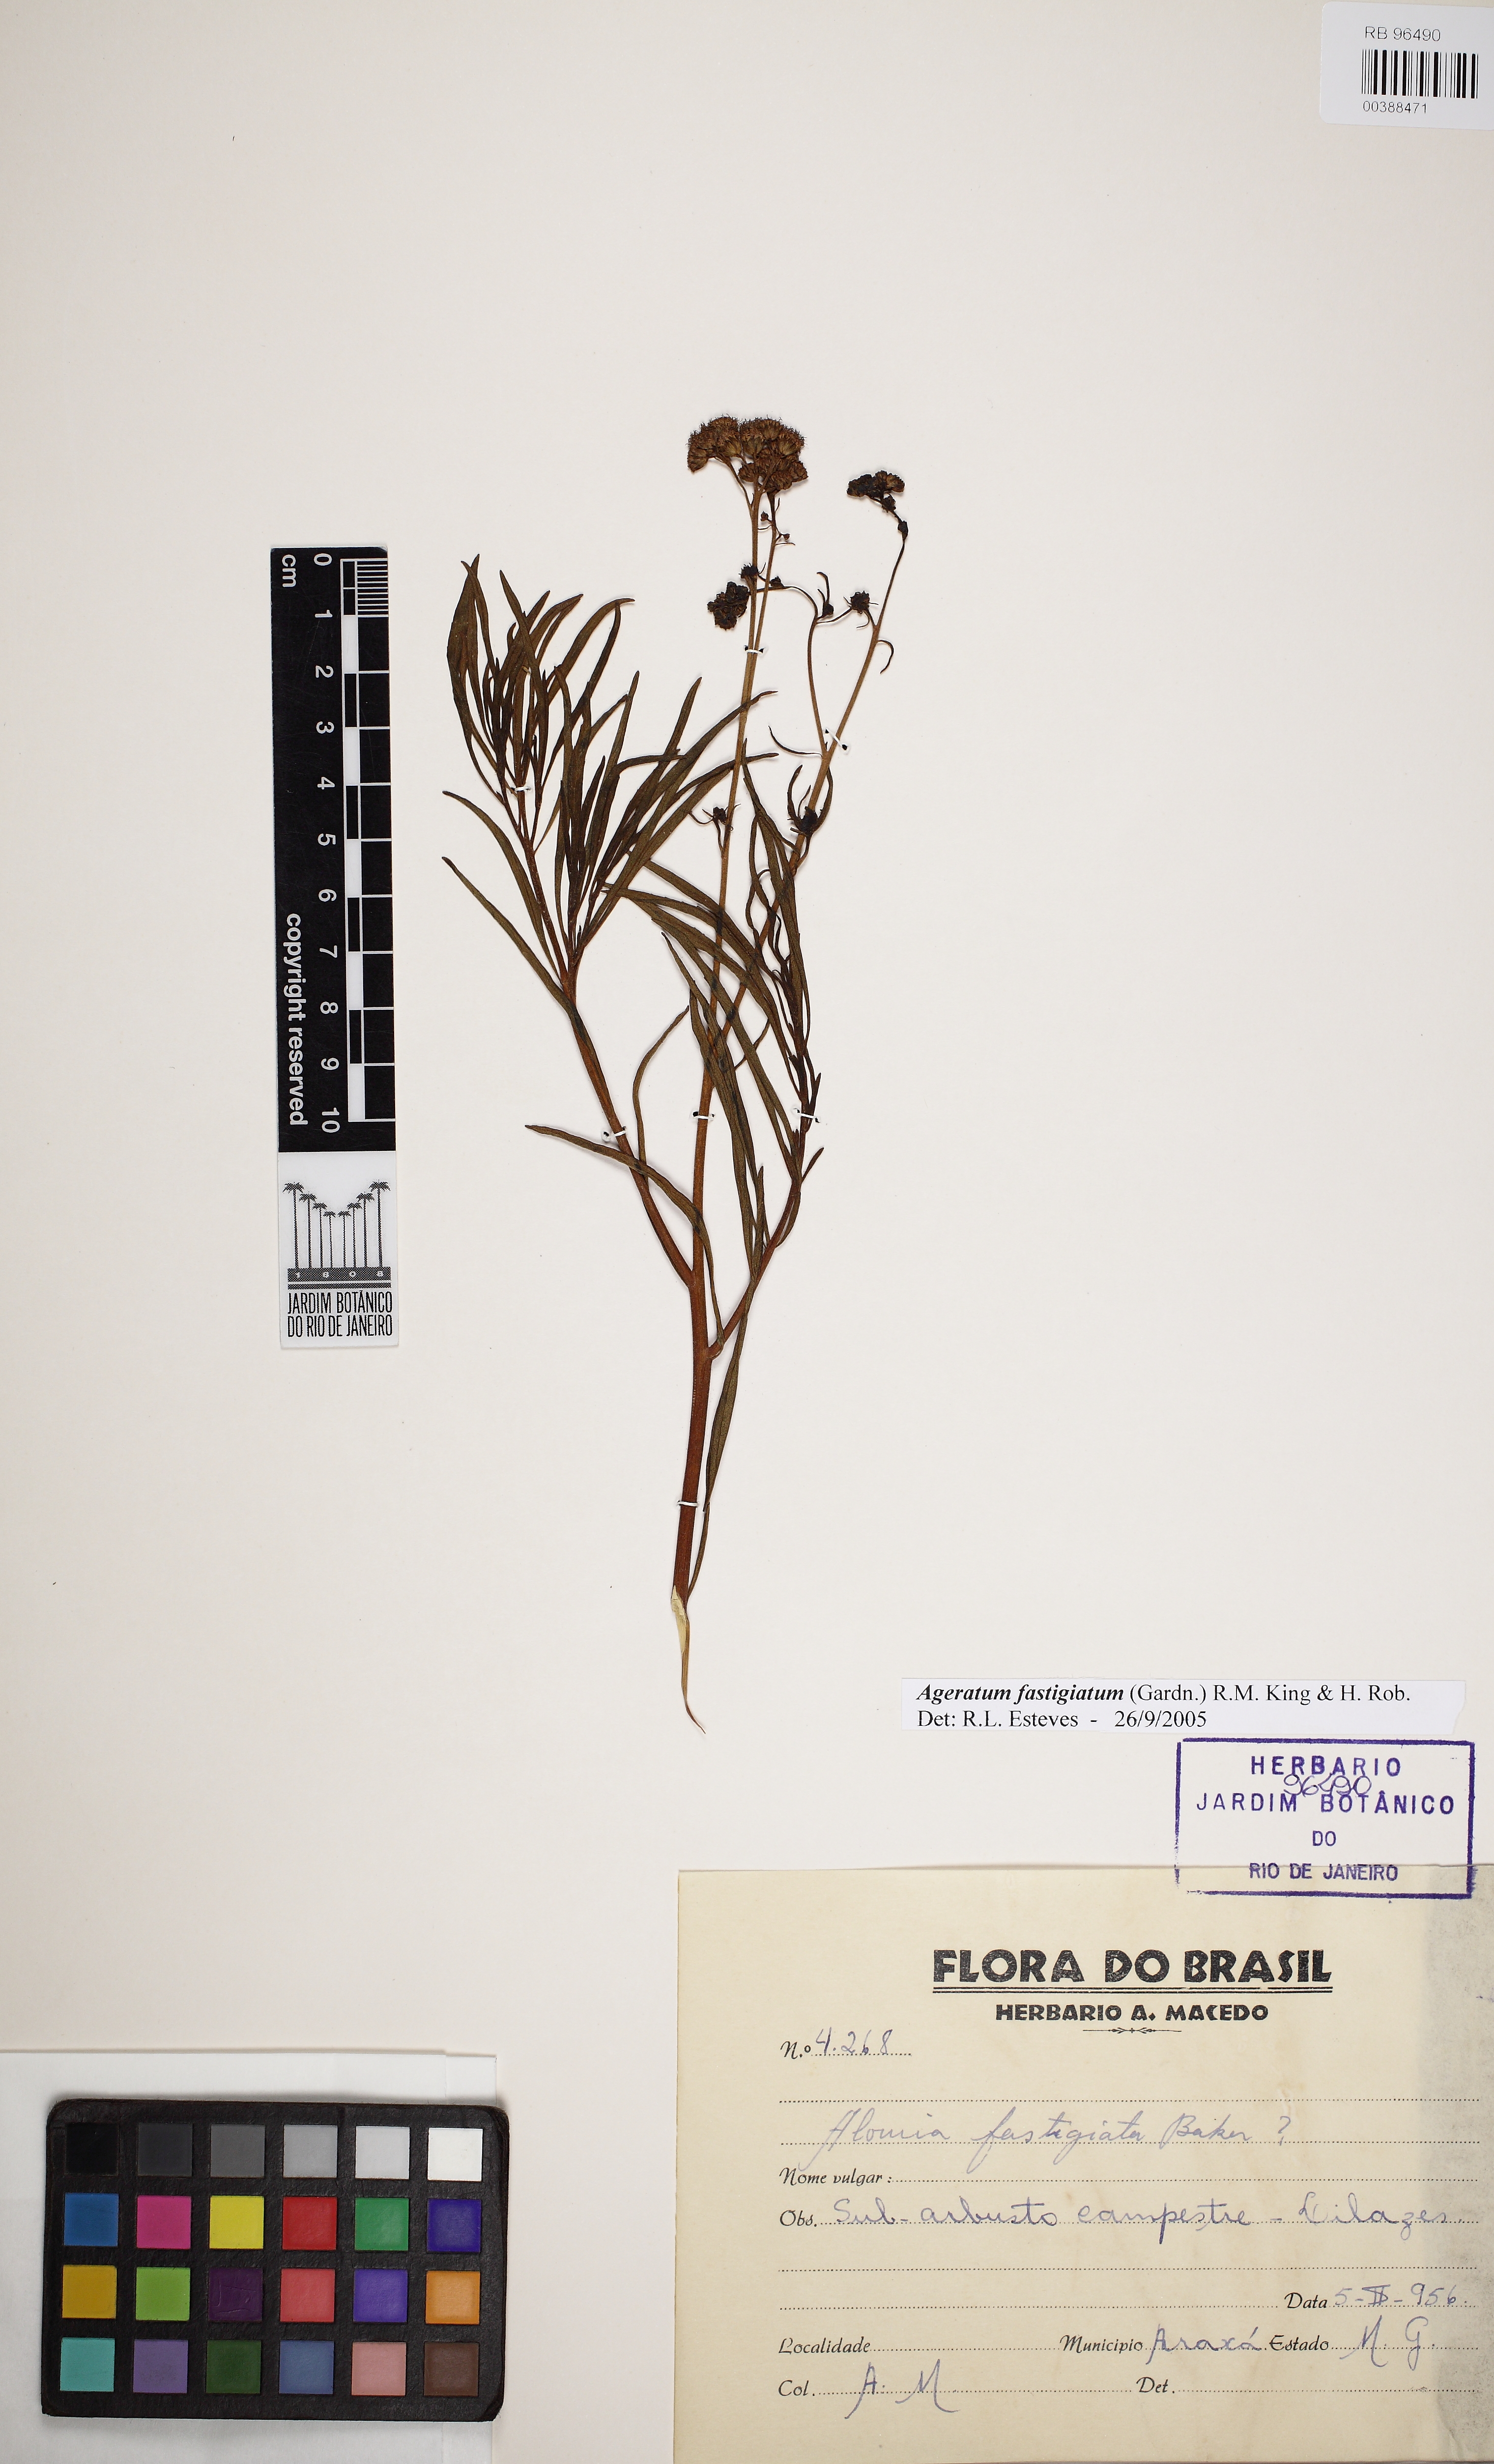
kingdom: Plantae
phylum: Tracheophyta
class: Magnoliopsida
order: Asterales
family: Asteraceae
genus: Ageratum
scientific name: Ageratum fastigiatum
